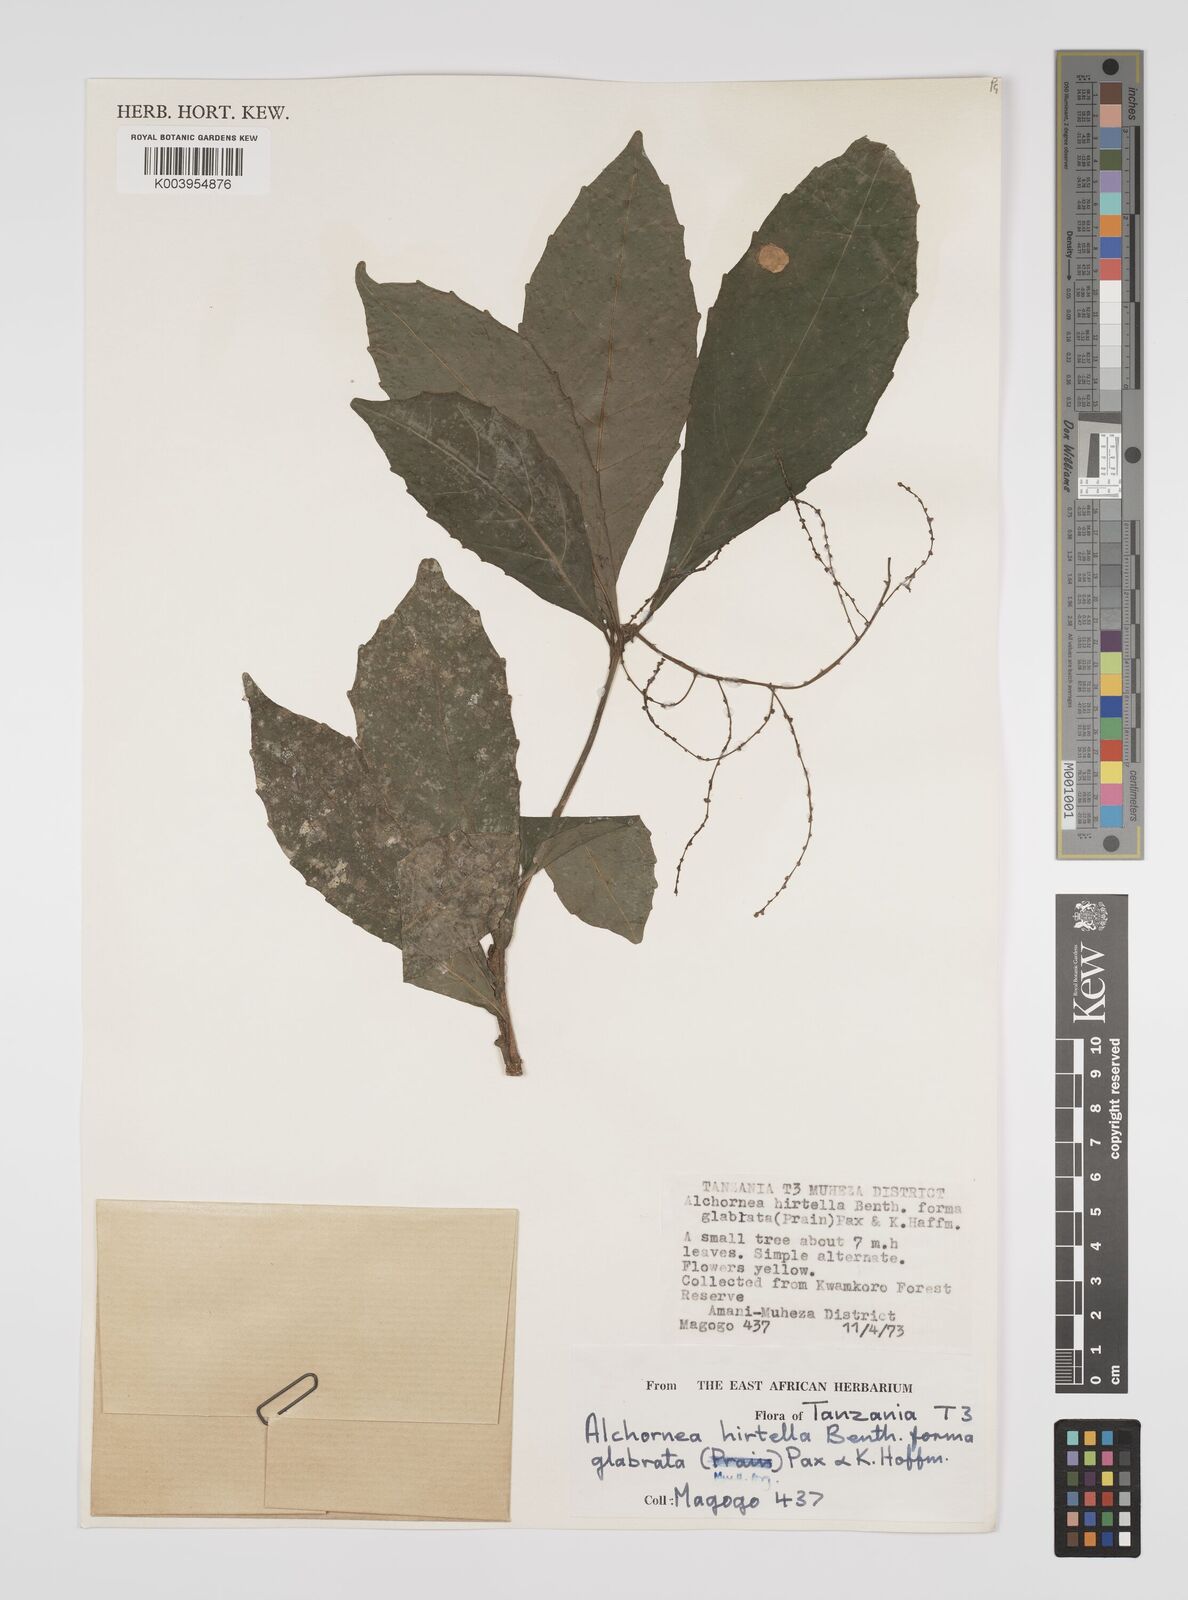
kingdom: Plantae
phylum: Tracheophyta
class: Magnoliopsida
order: Malpighiales
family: Euphorbiaceae
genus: Alchornea
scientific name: Alchornea hirtella
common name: Forest bead-string
